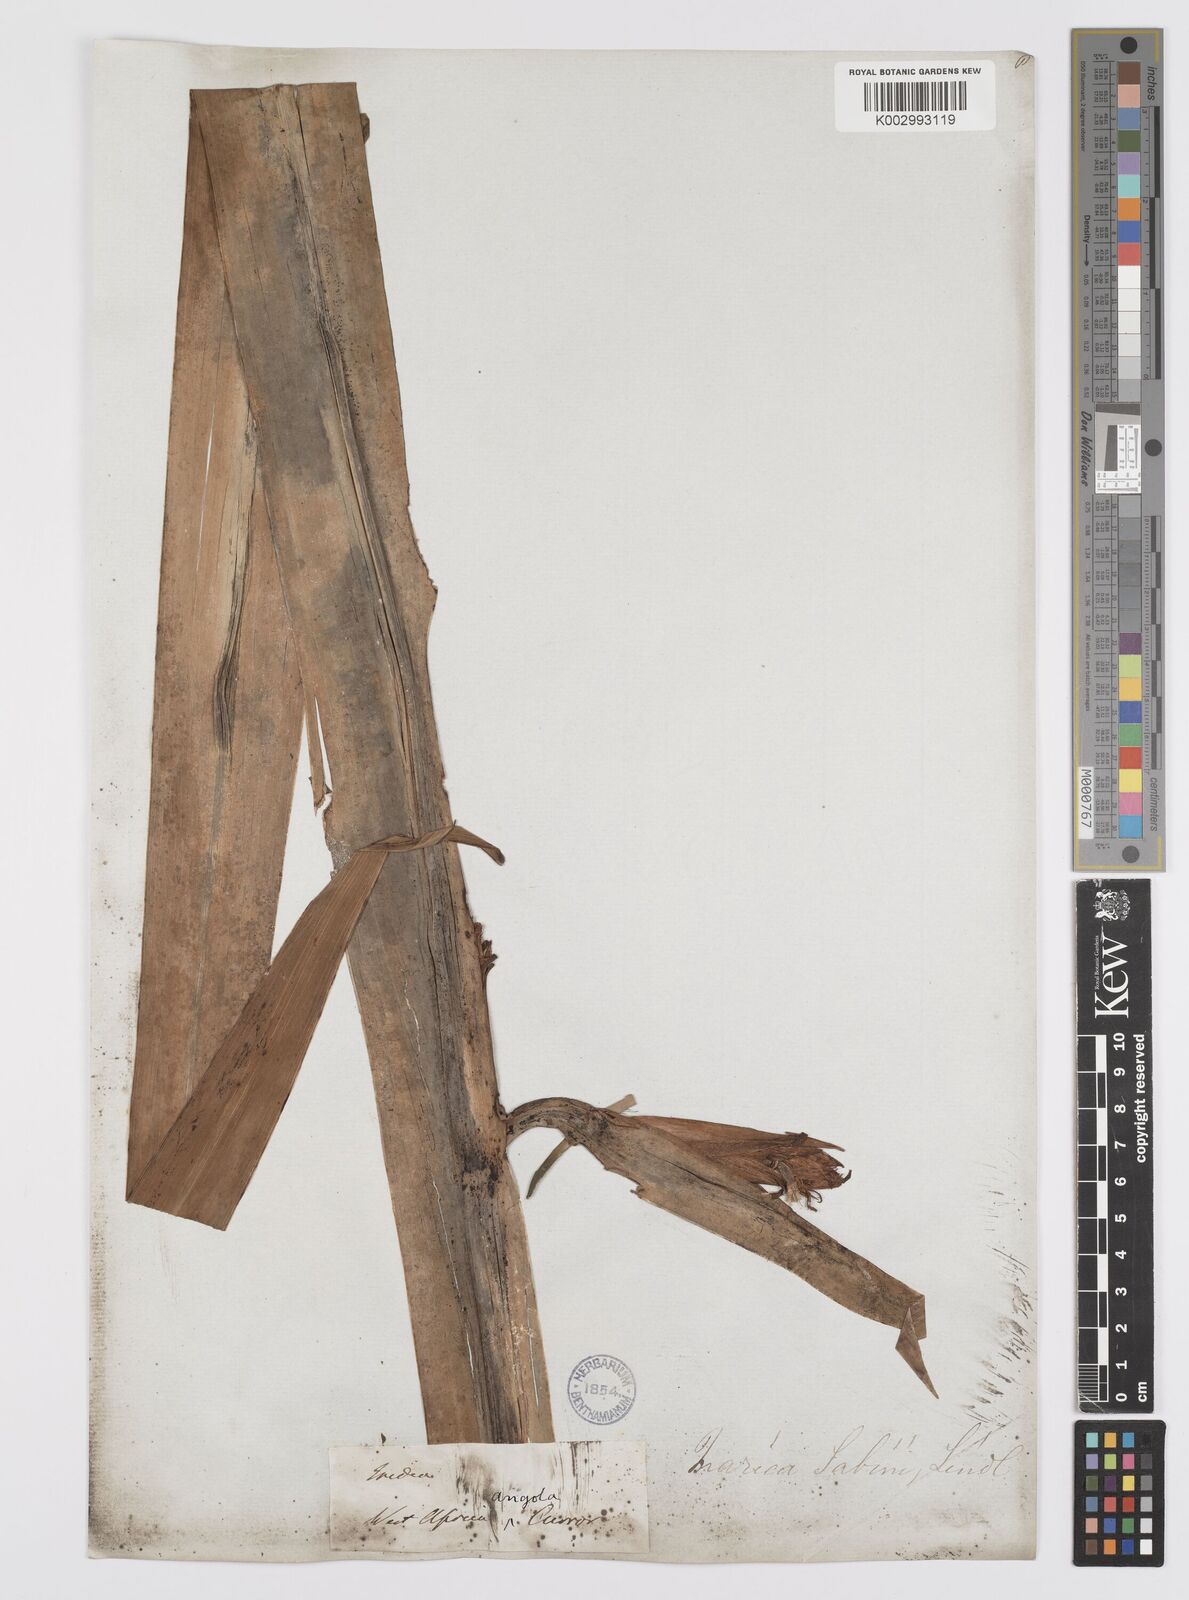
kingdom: Plantae
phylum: Tracheophyta
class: Liliopsida
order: Asparagales
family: Iridaceae
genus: Trimezia
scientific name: Trimezia sabini
